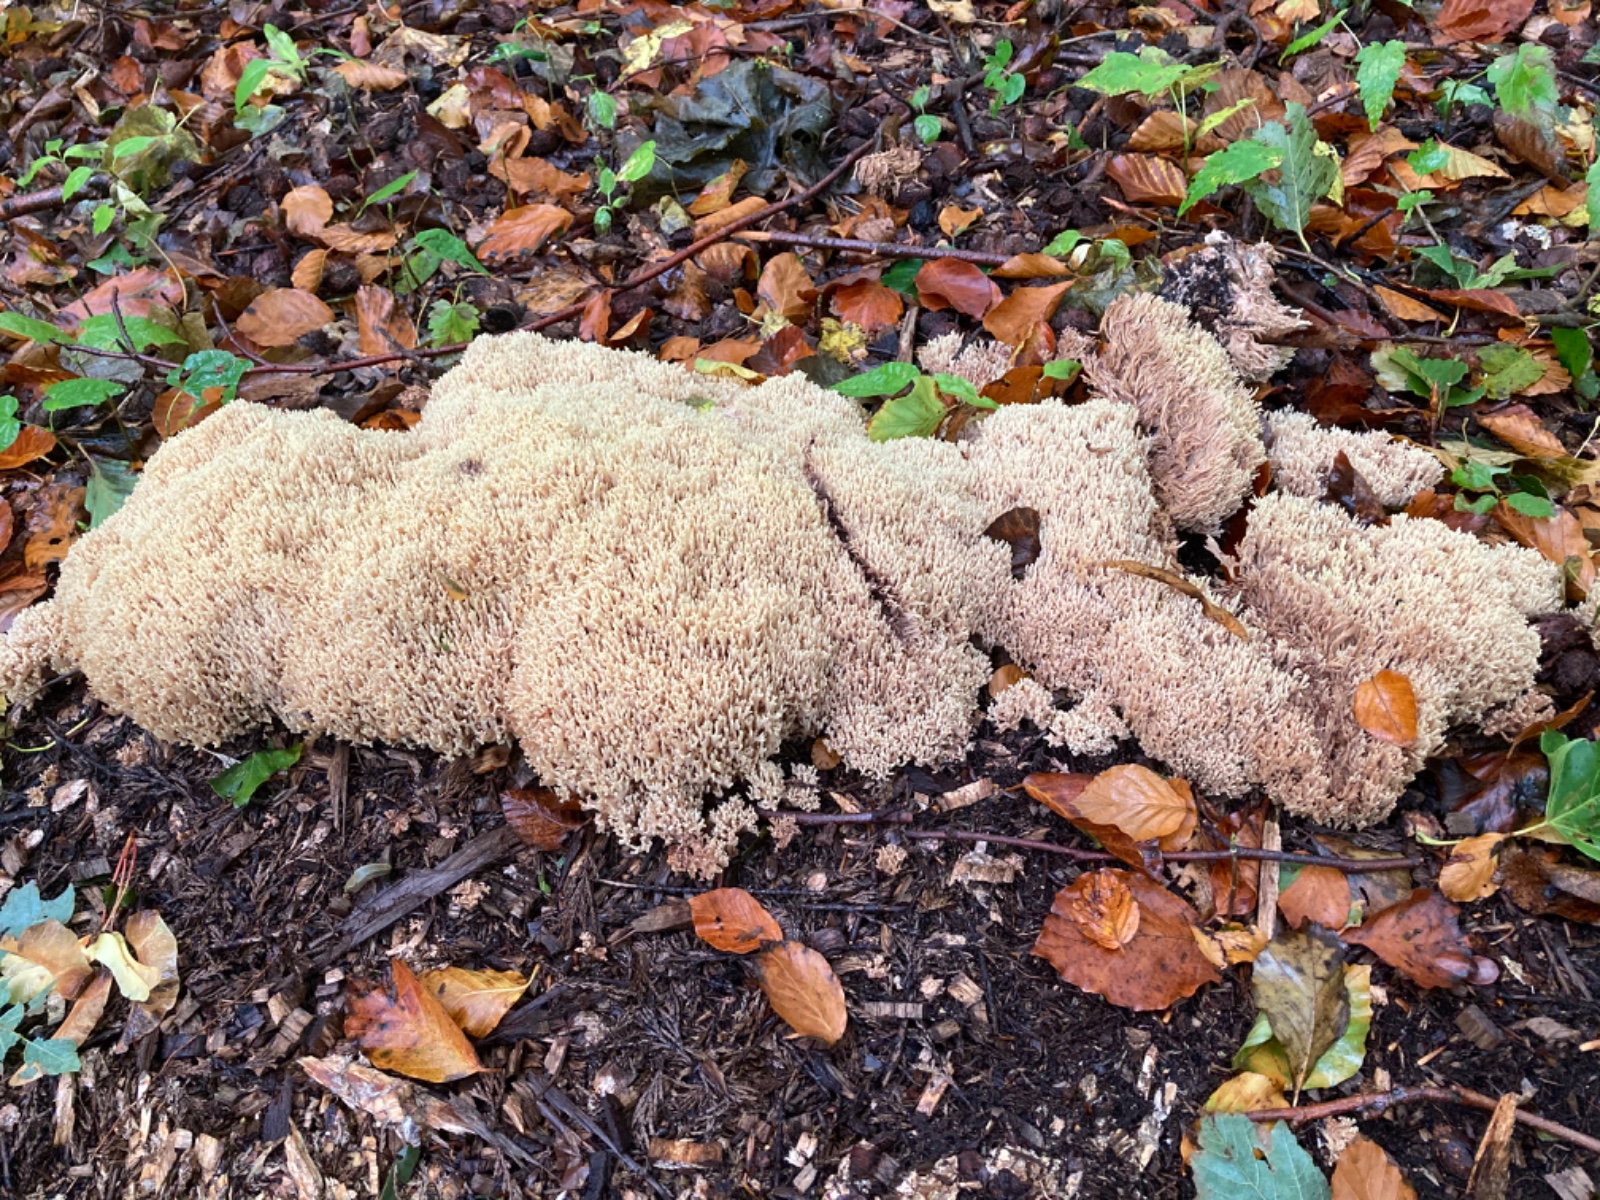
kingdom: Fungi
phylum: Basidiomycota
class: Agaricomycetes
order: Gomphales
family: Gomphaceae
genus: Ramaria
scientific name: Ramaria stricta
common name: rank koralsvamp
